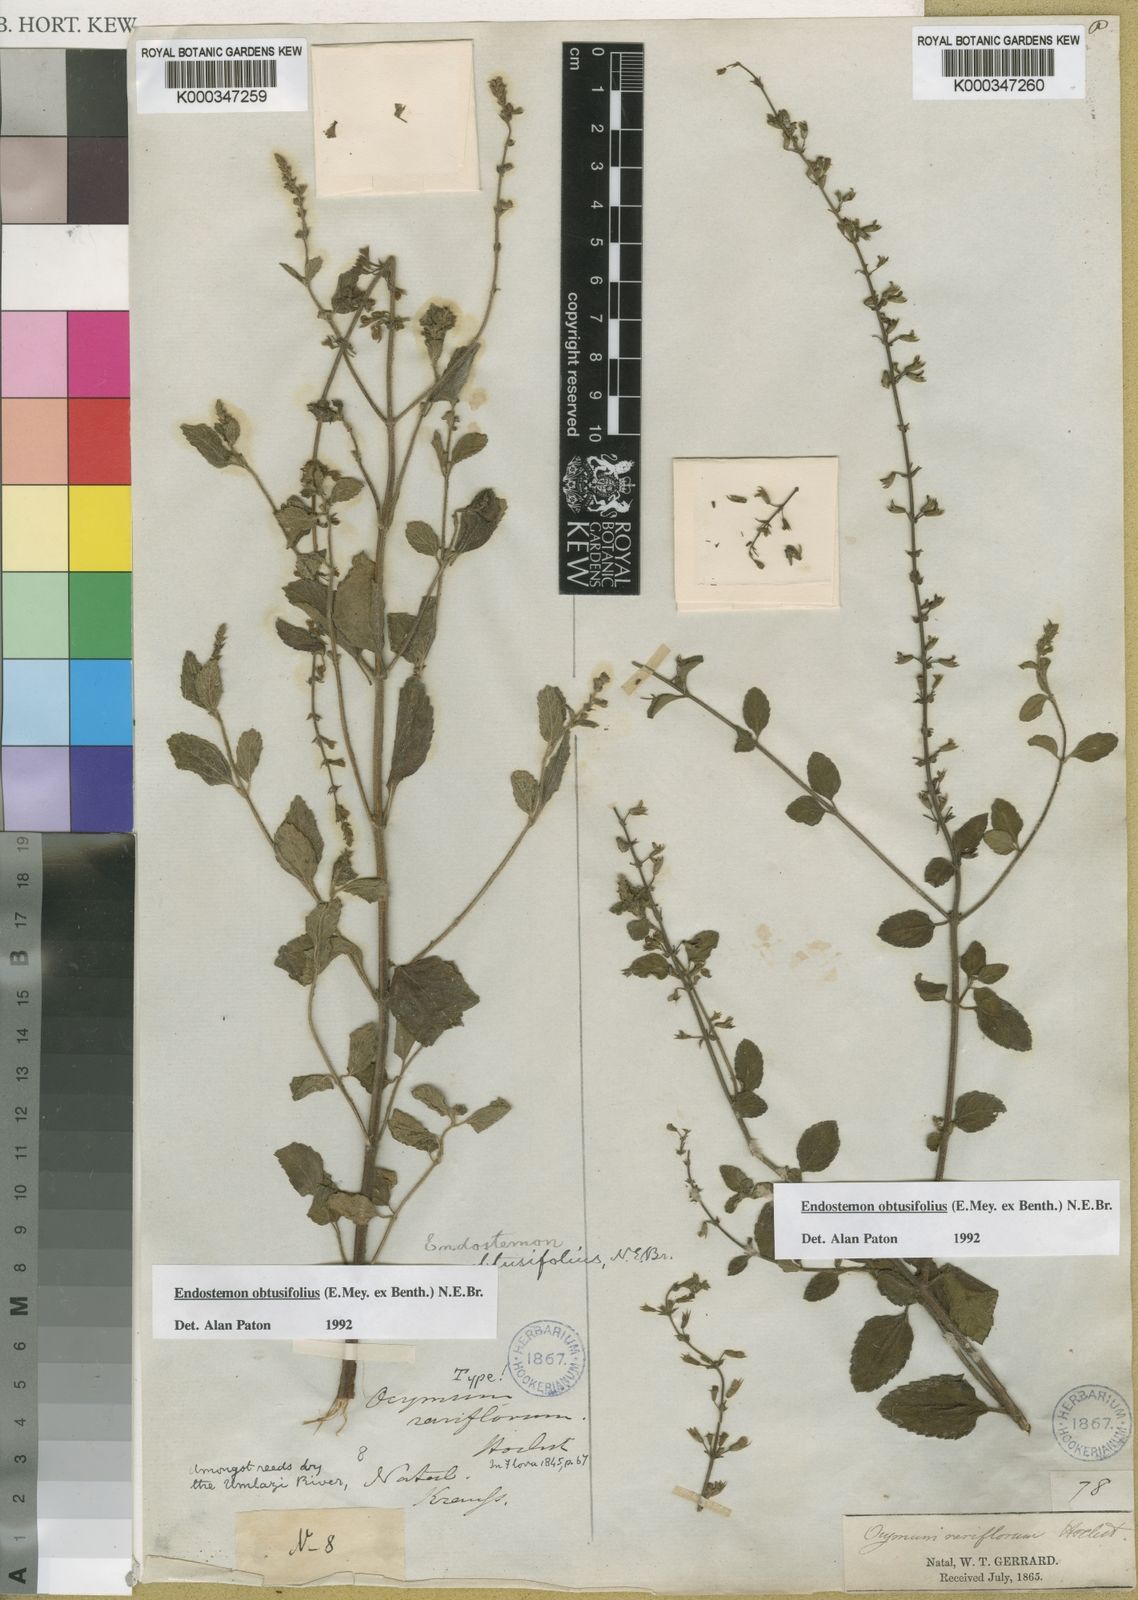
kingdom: Plantae
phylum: Tracheophyta
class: Magnoliopsida
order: Lamiales
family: Lamiaceae
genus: Endostemon
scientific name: Endostemon obtusifolius
